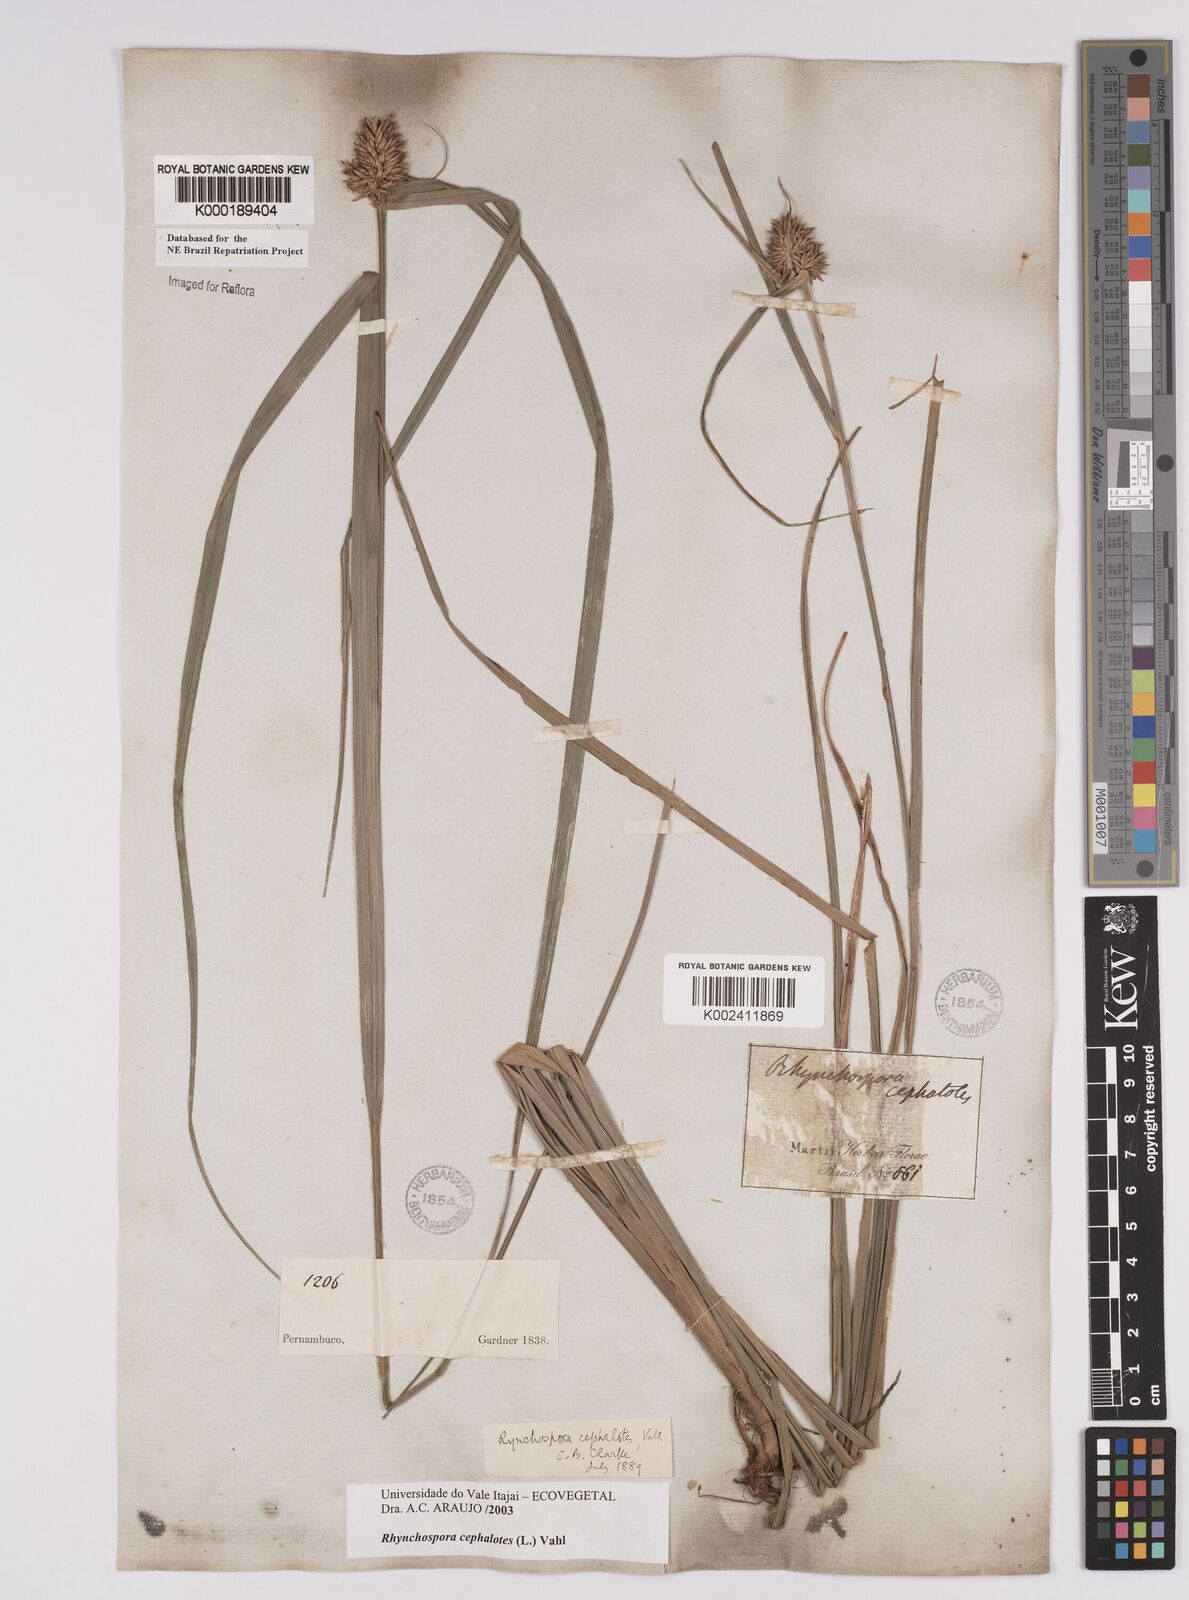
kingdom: Plantae
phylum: Tracheophyta
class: Liliopsida
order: Poales
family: Cyperaceae
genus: Rhynchospora
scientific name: Rhynchospora cephalantha
